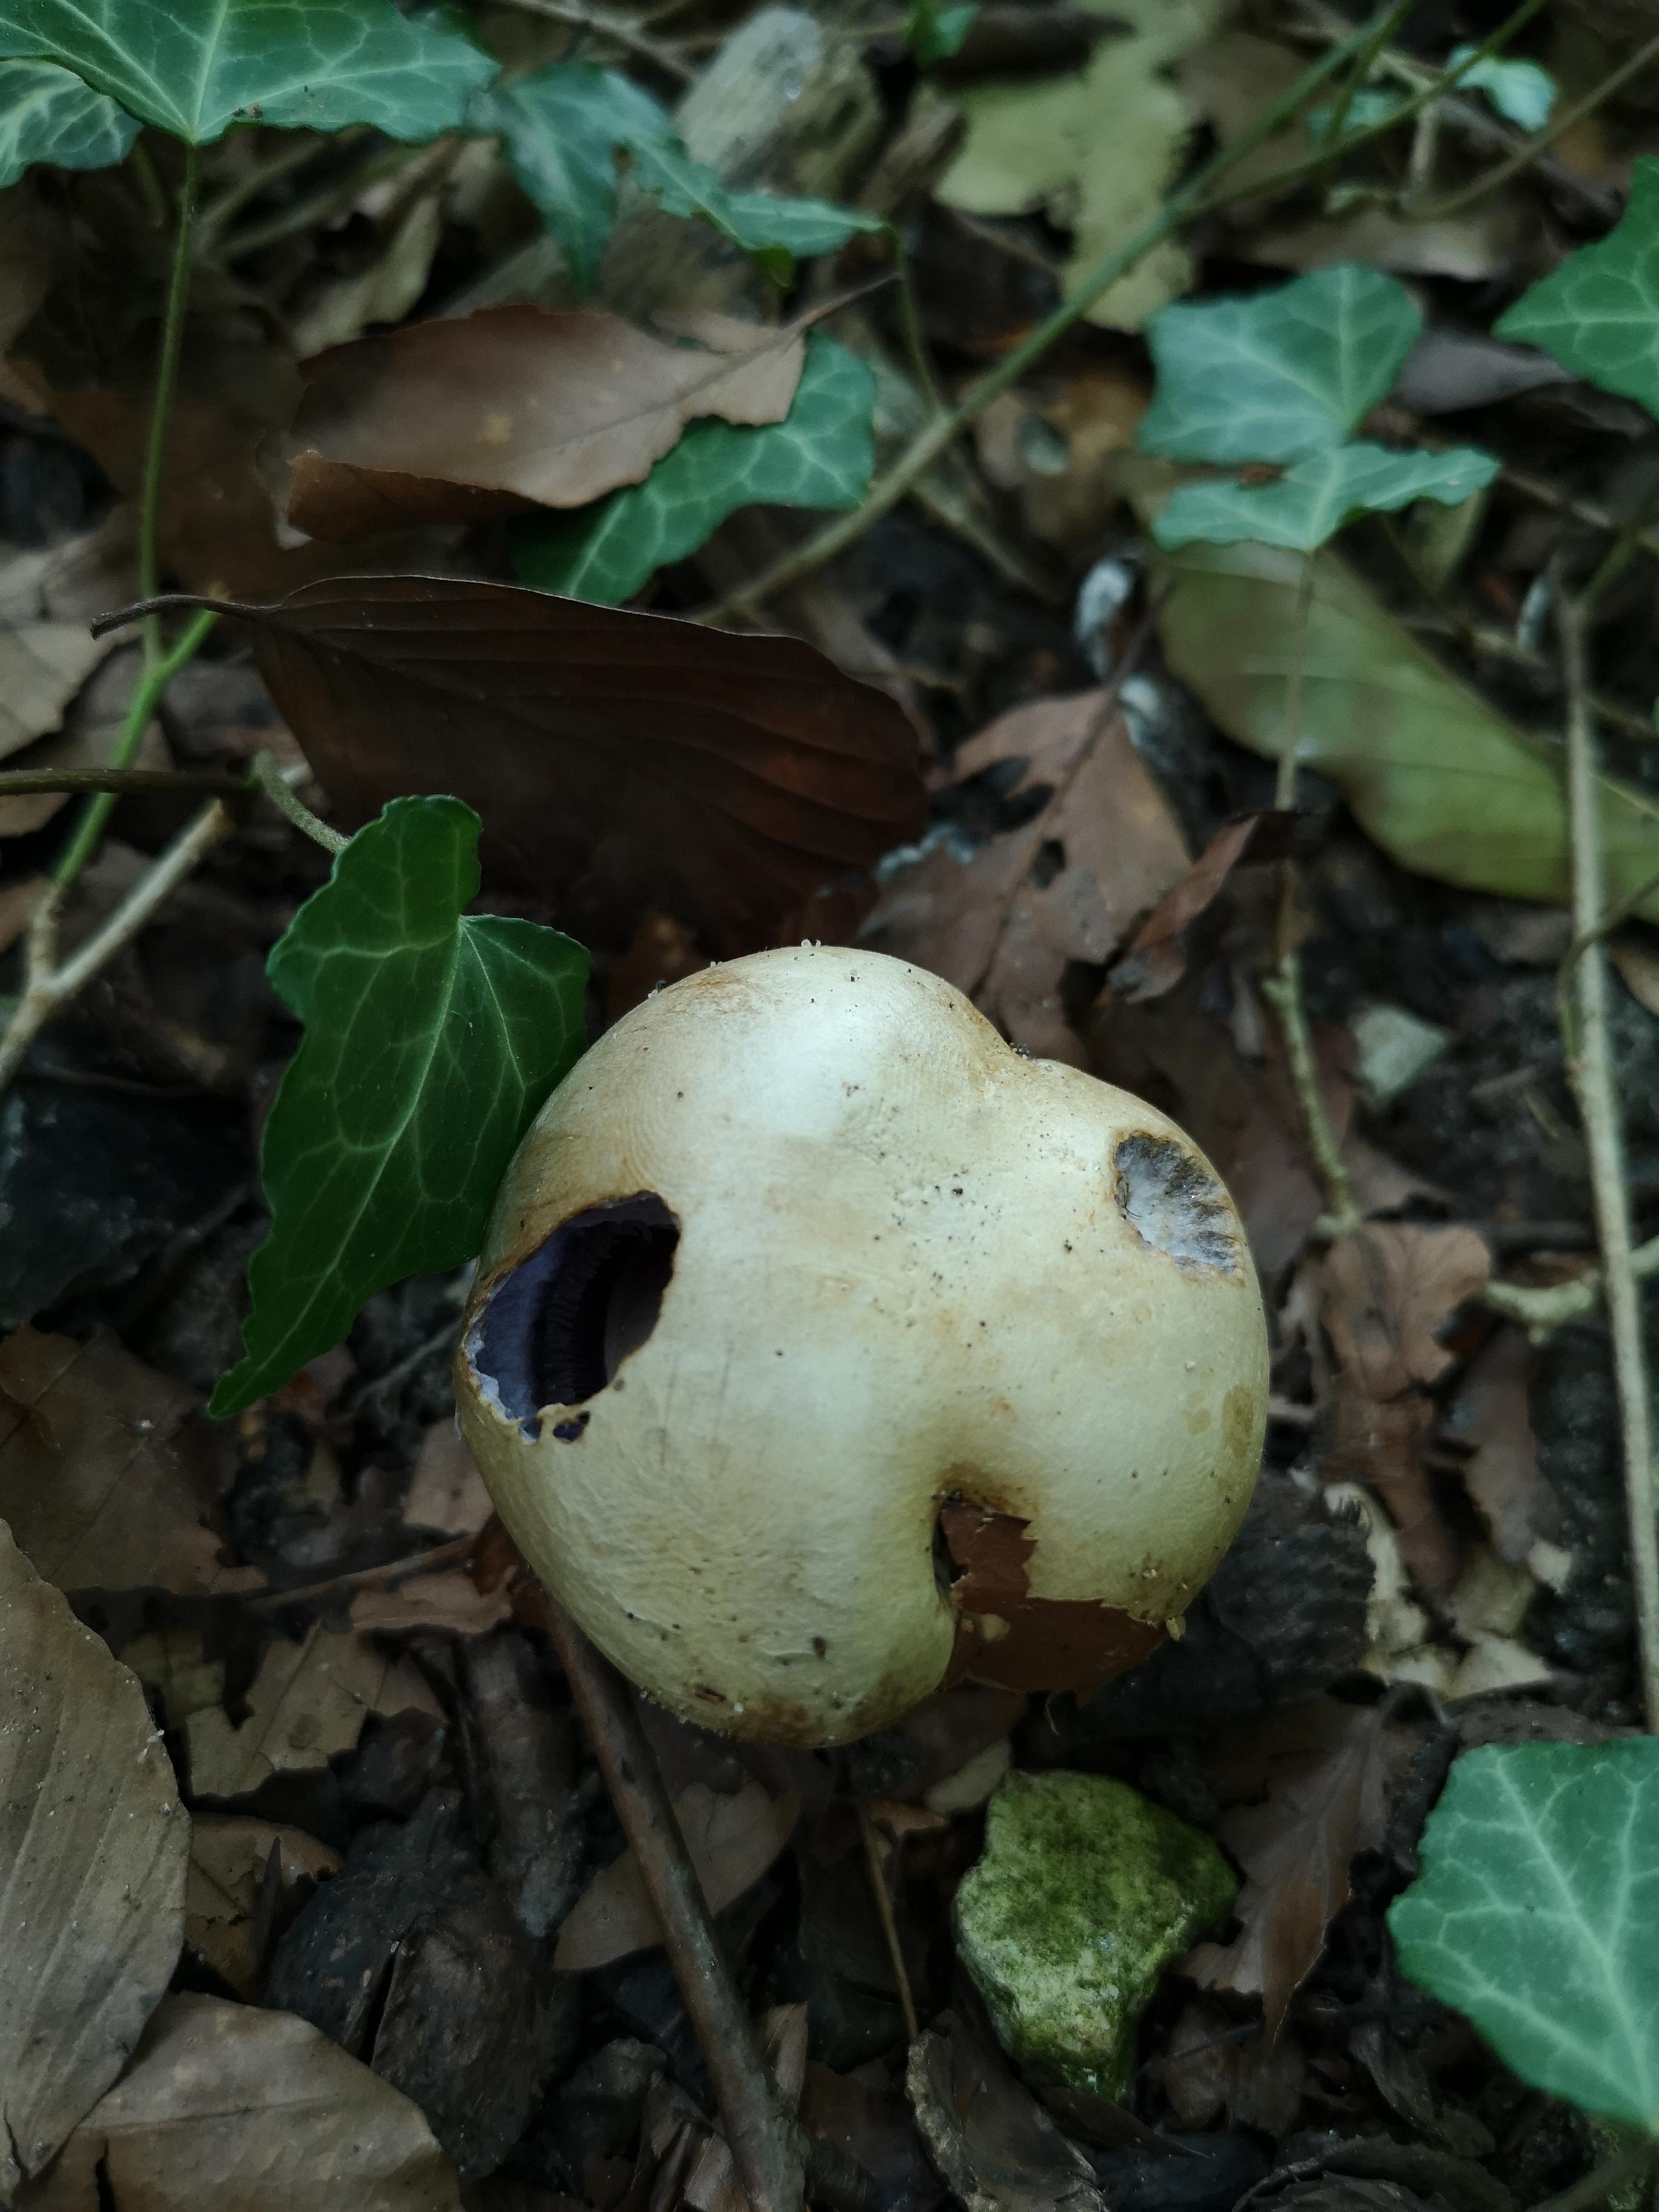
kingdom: Fungi
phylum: Basidiomycota
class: Agaricomycetes
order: Agaricales
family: Cortinariaceae
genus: Cortinarius
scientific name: Cortinarius anserinus
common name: bøge-slørhat
